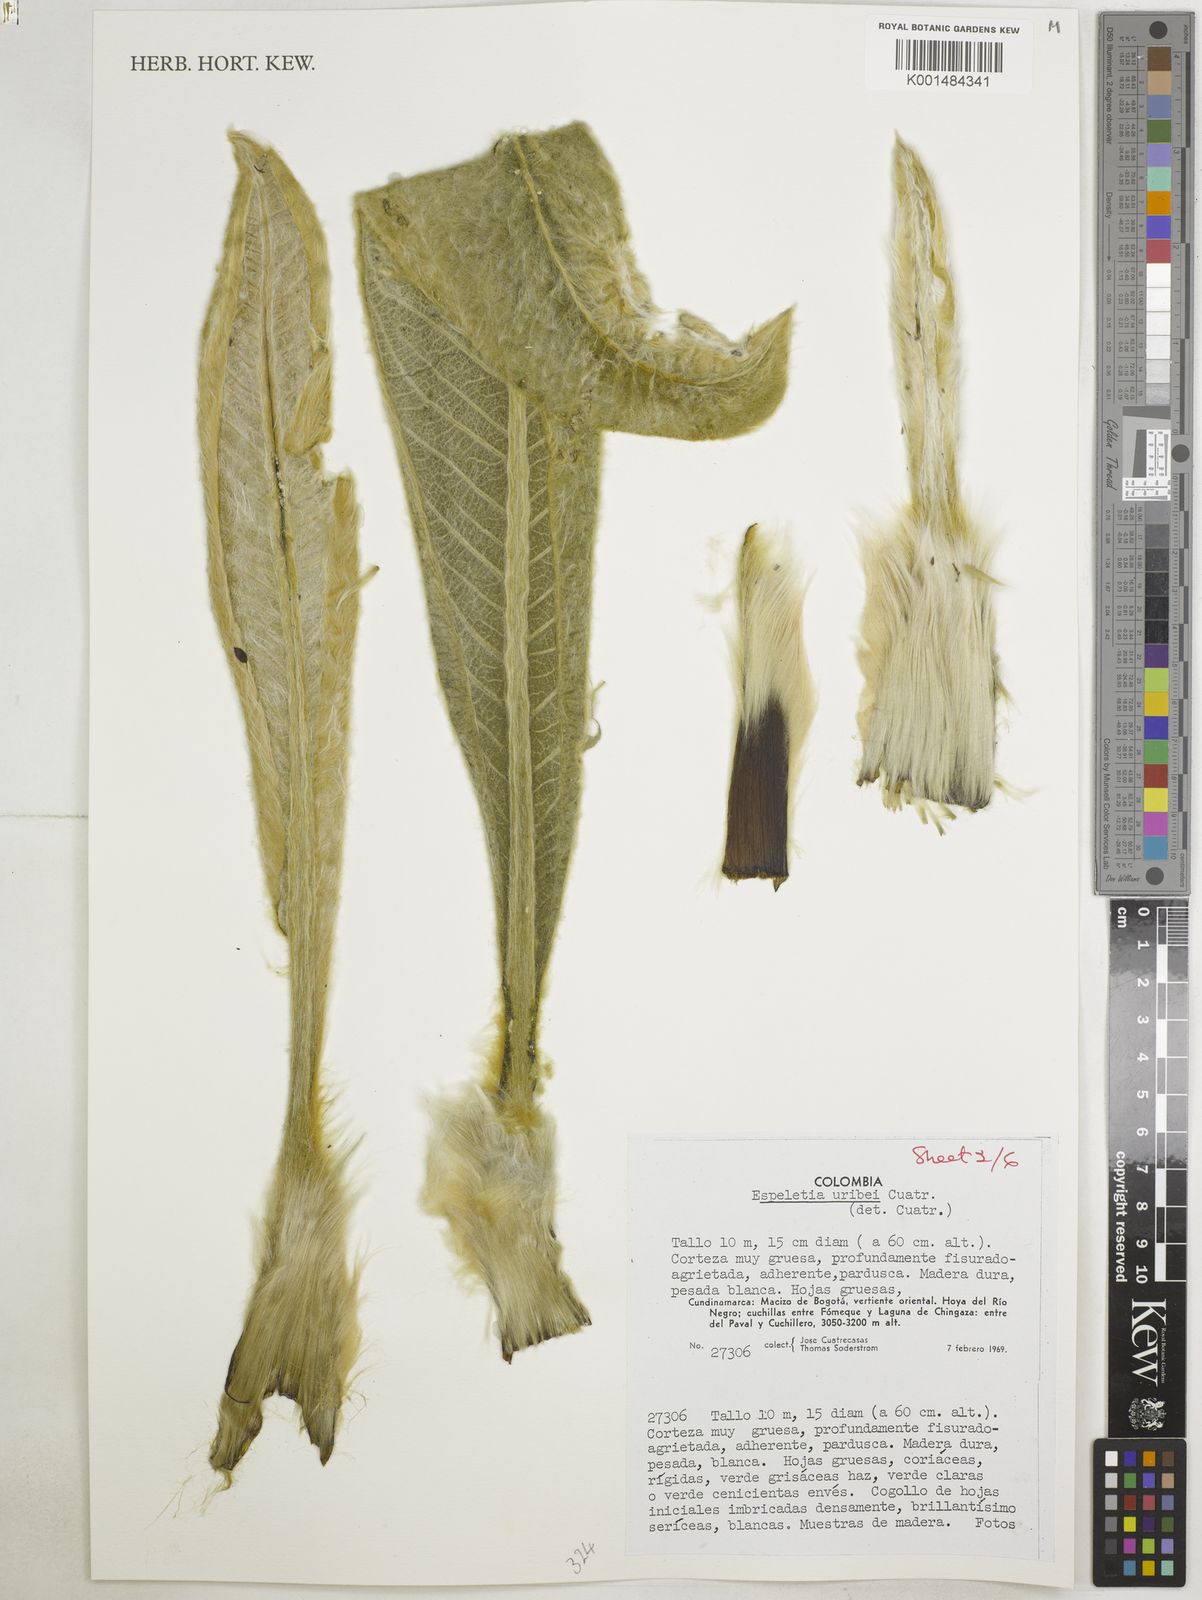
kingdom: Plantae
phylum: Tracheophyta
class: Magnoliopsida
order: Asterales
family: Asteraceae
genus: Espeletia
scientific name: Espeletia uribei
